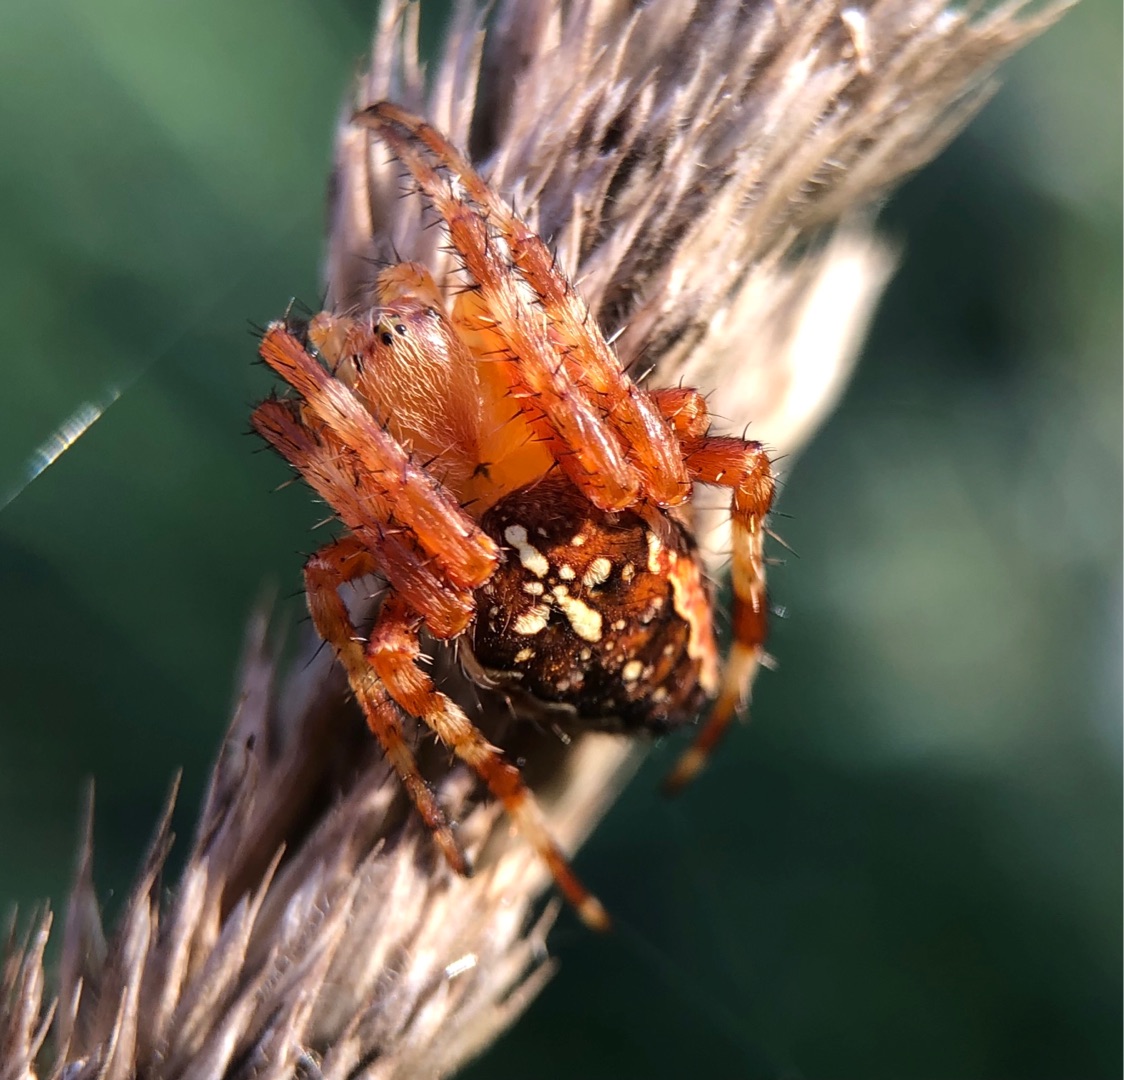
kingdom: Animalia
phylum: Arthropoda
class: Arachnida
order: Araneae
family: Araneidae
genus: Araneus
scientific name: Araneus diadematus
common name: Korsedderkop
